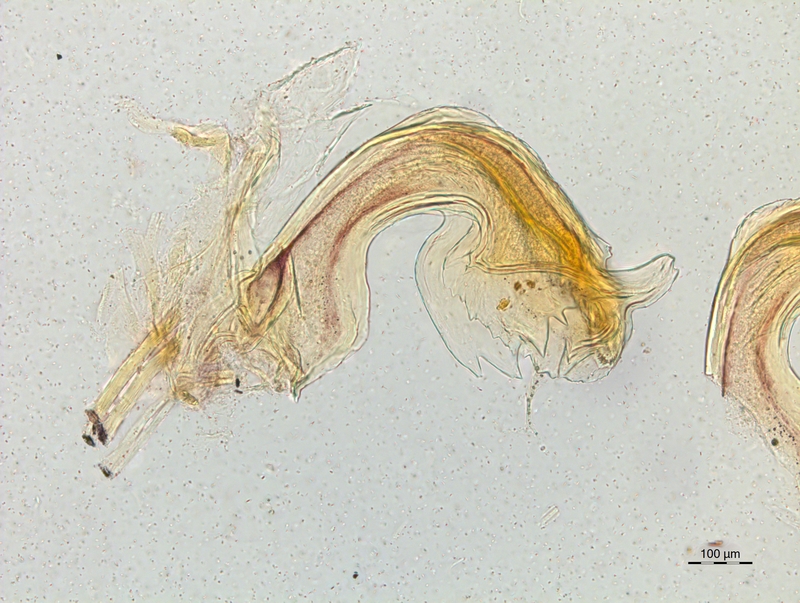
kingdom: Animalia
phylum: Arthropoda
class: Diplopoda
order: Chordeumatida
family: Craspedosomatidae
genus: Craspedosoma
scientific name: Craspedosoma taurinorum
